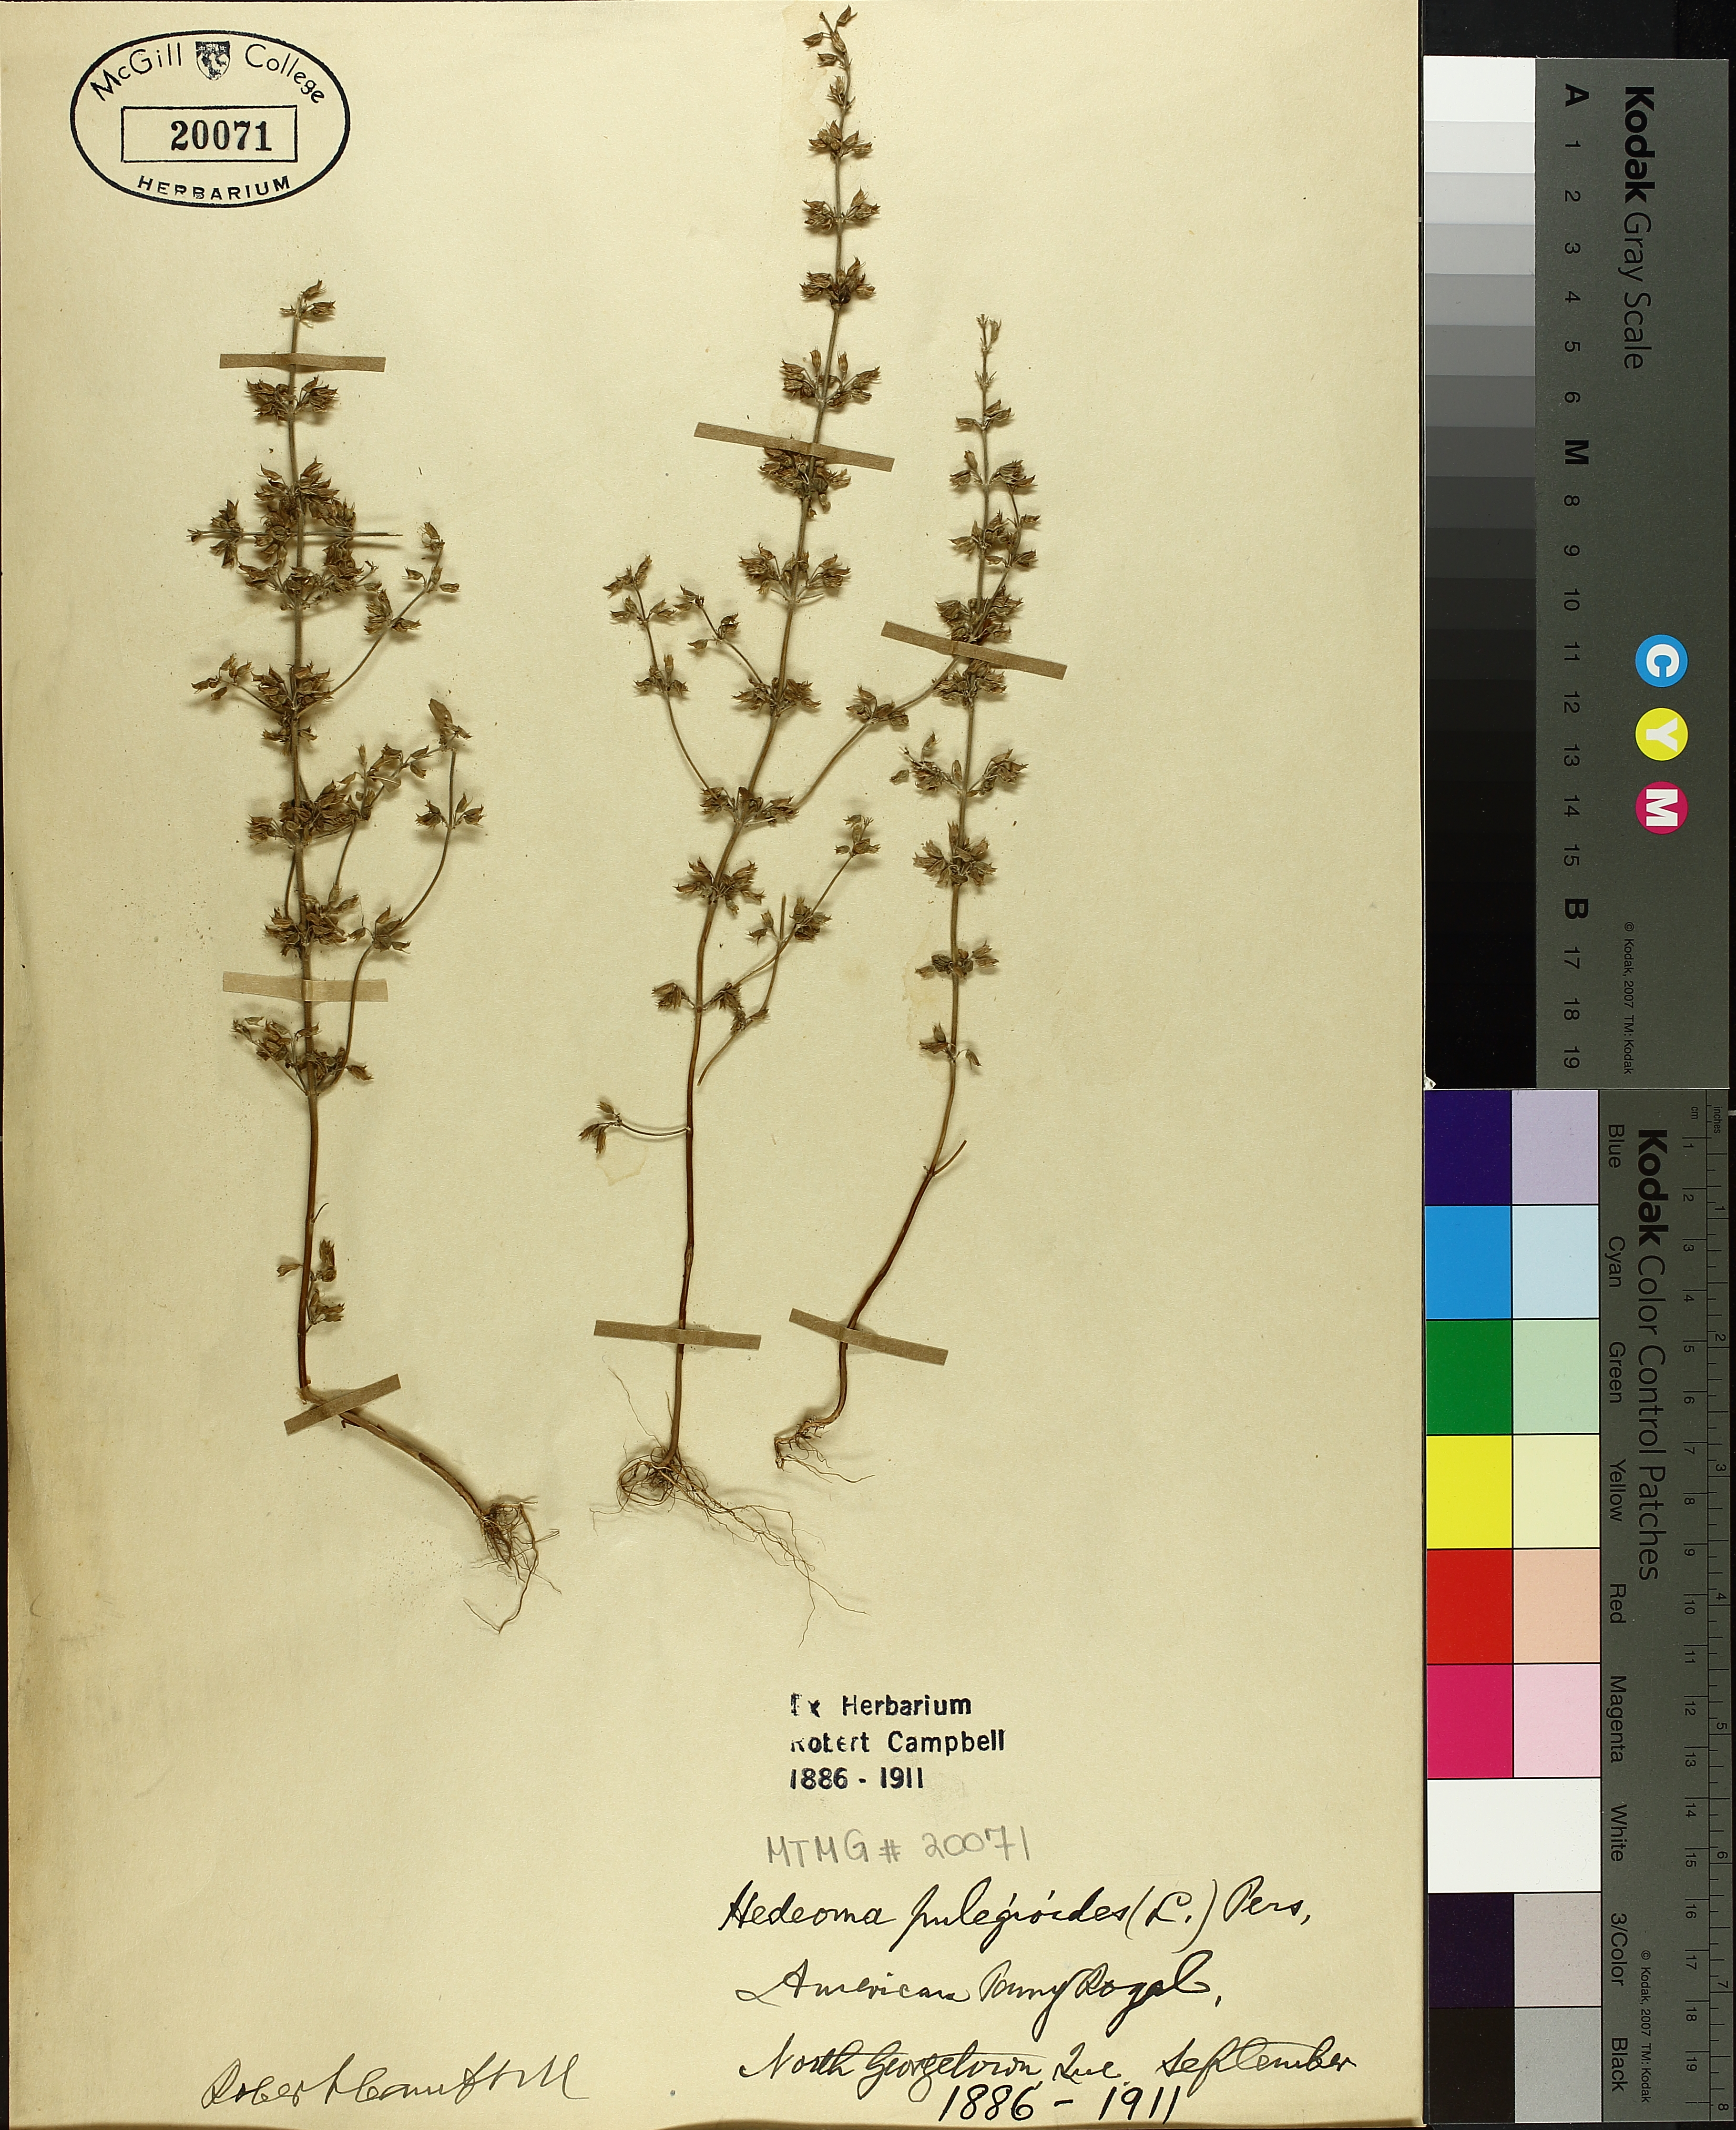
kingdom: Plantae
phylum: Tracheophyta
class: Magnoliopsida
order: Lamiales
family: Lamiaceae
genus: Hedeoma
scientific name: Hedeoma pulegioides
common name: American false pennyroyal
